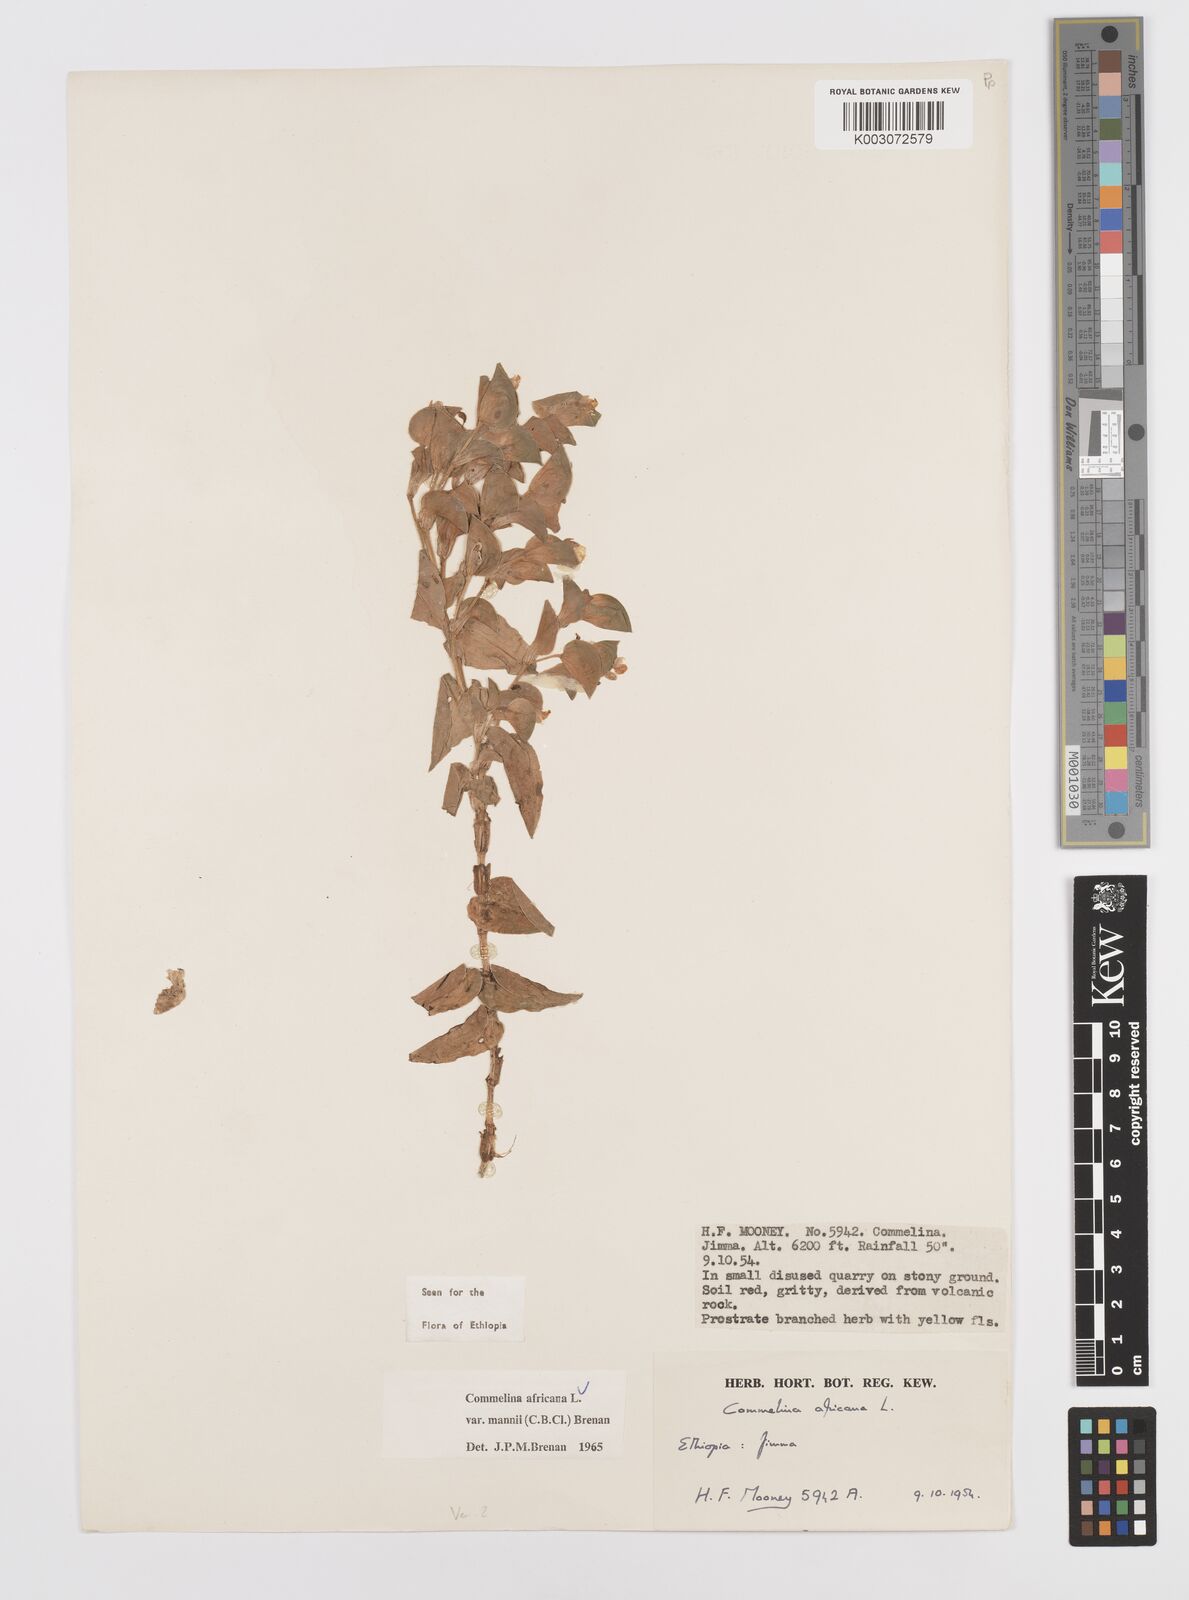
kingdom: Plantae
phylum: Tracheophyta
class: Liliopsida
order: Commelinales
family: Commelinaceae
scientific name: Commelinaceae
